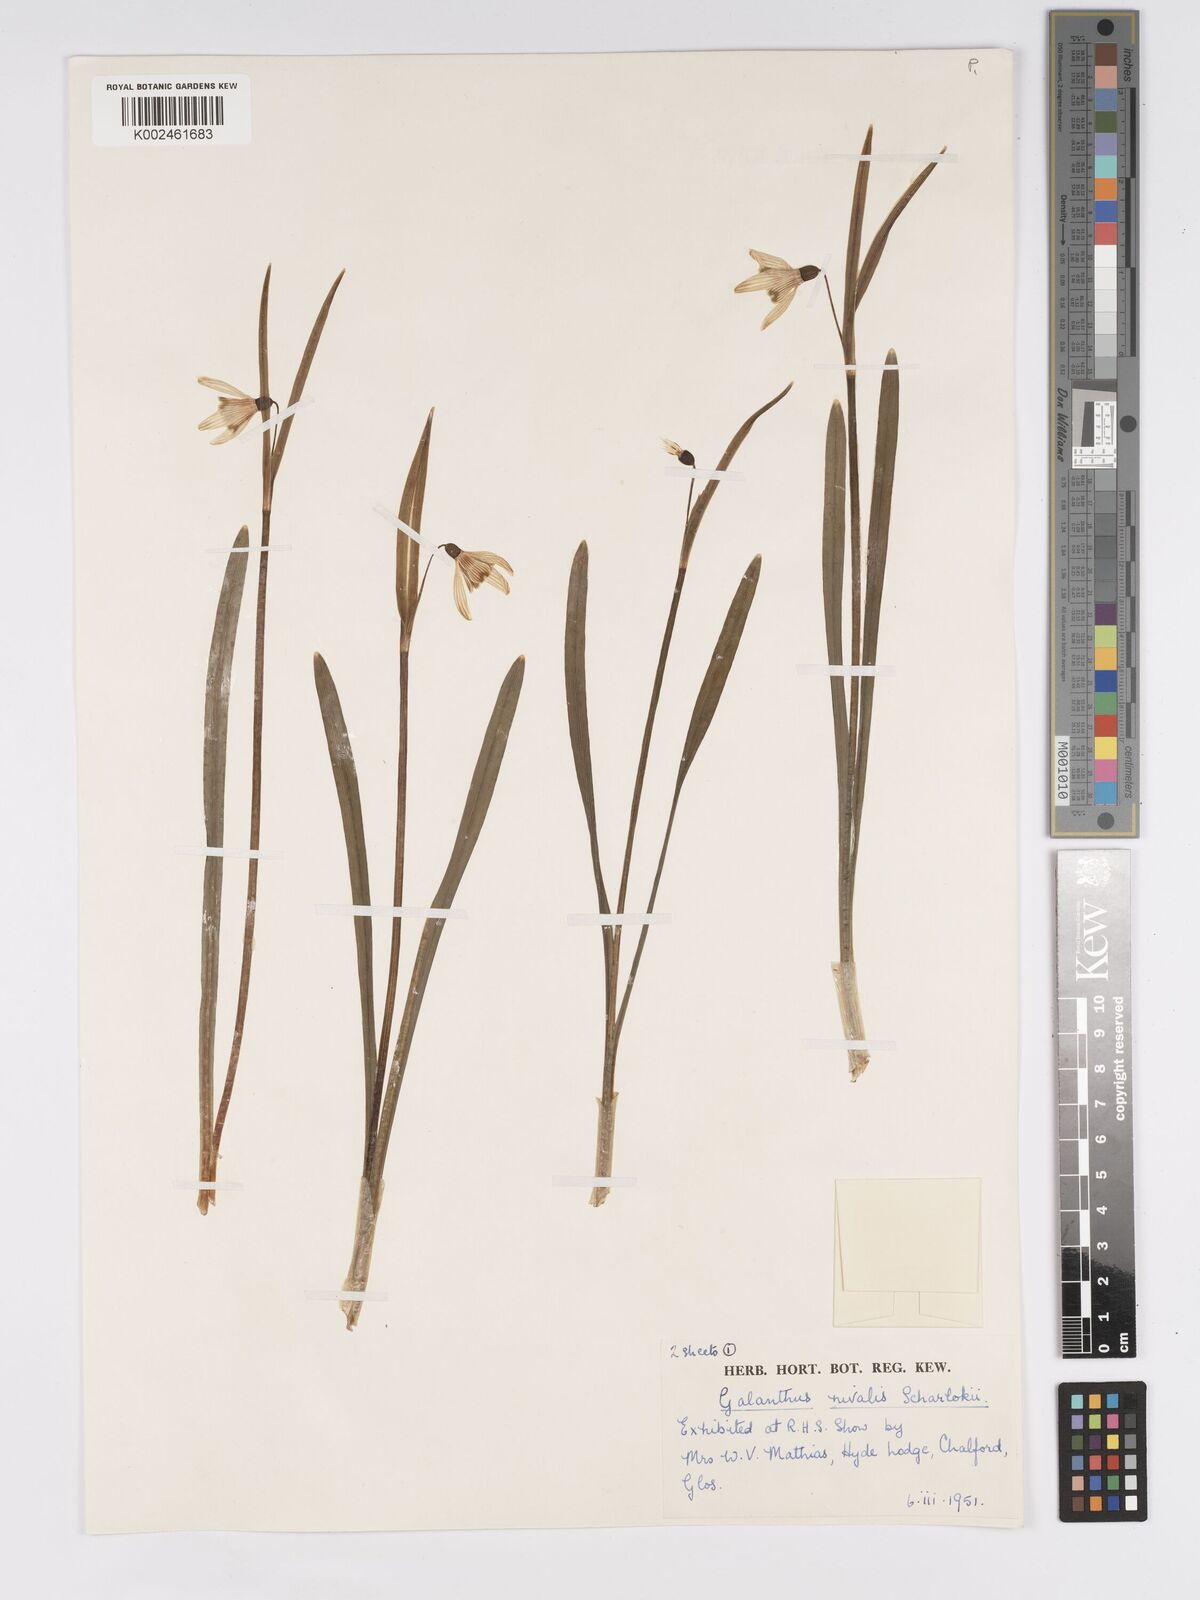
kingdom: Plantae
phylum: Tracheophyta
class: Liliopsida
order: Asparagales
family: Amaryllidaceae
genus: Galanthus
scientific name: Galanthus nivalis
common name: Snowdrop
